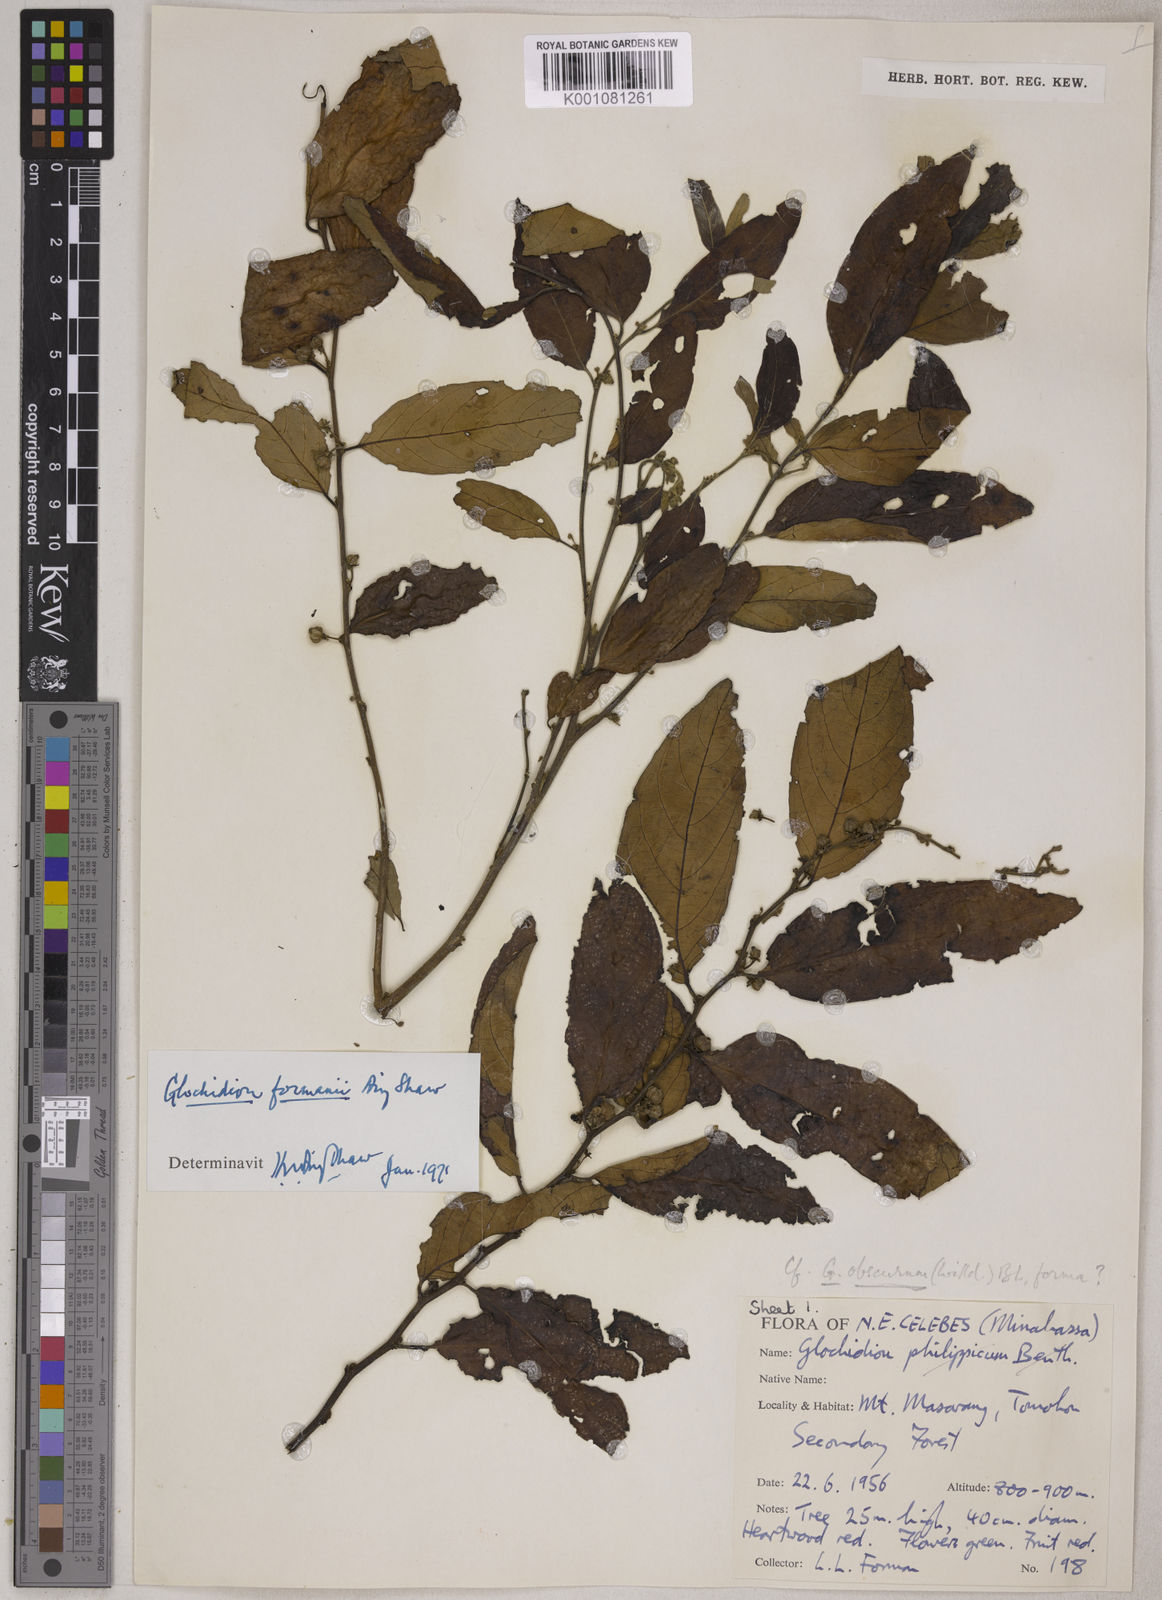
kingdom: Plantae
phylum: Tracheophyta
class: Magnoliopsida
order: Malpighiales
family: Phyllanthaceae
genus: Glochidion
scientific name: Glochidion formanii
